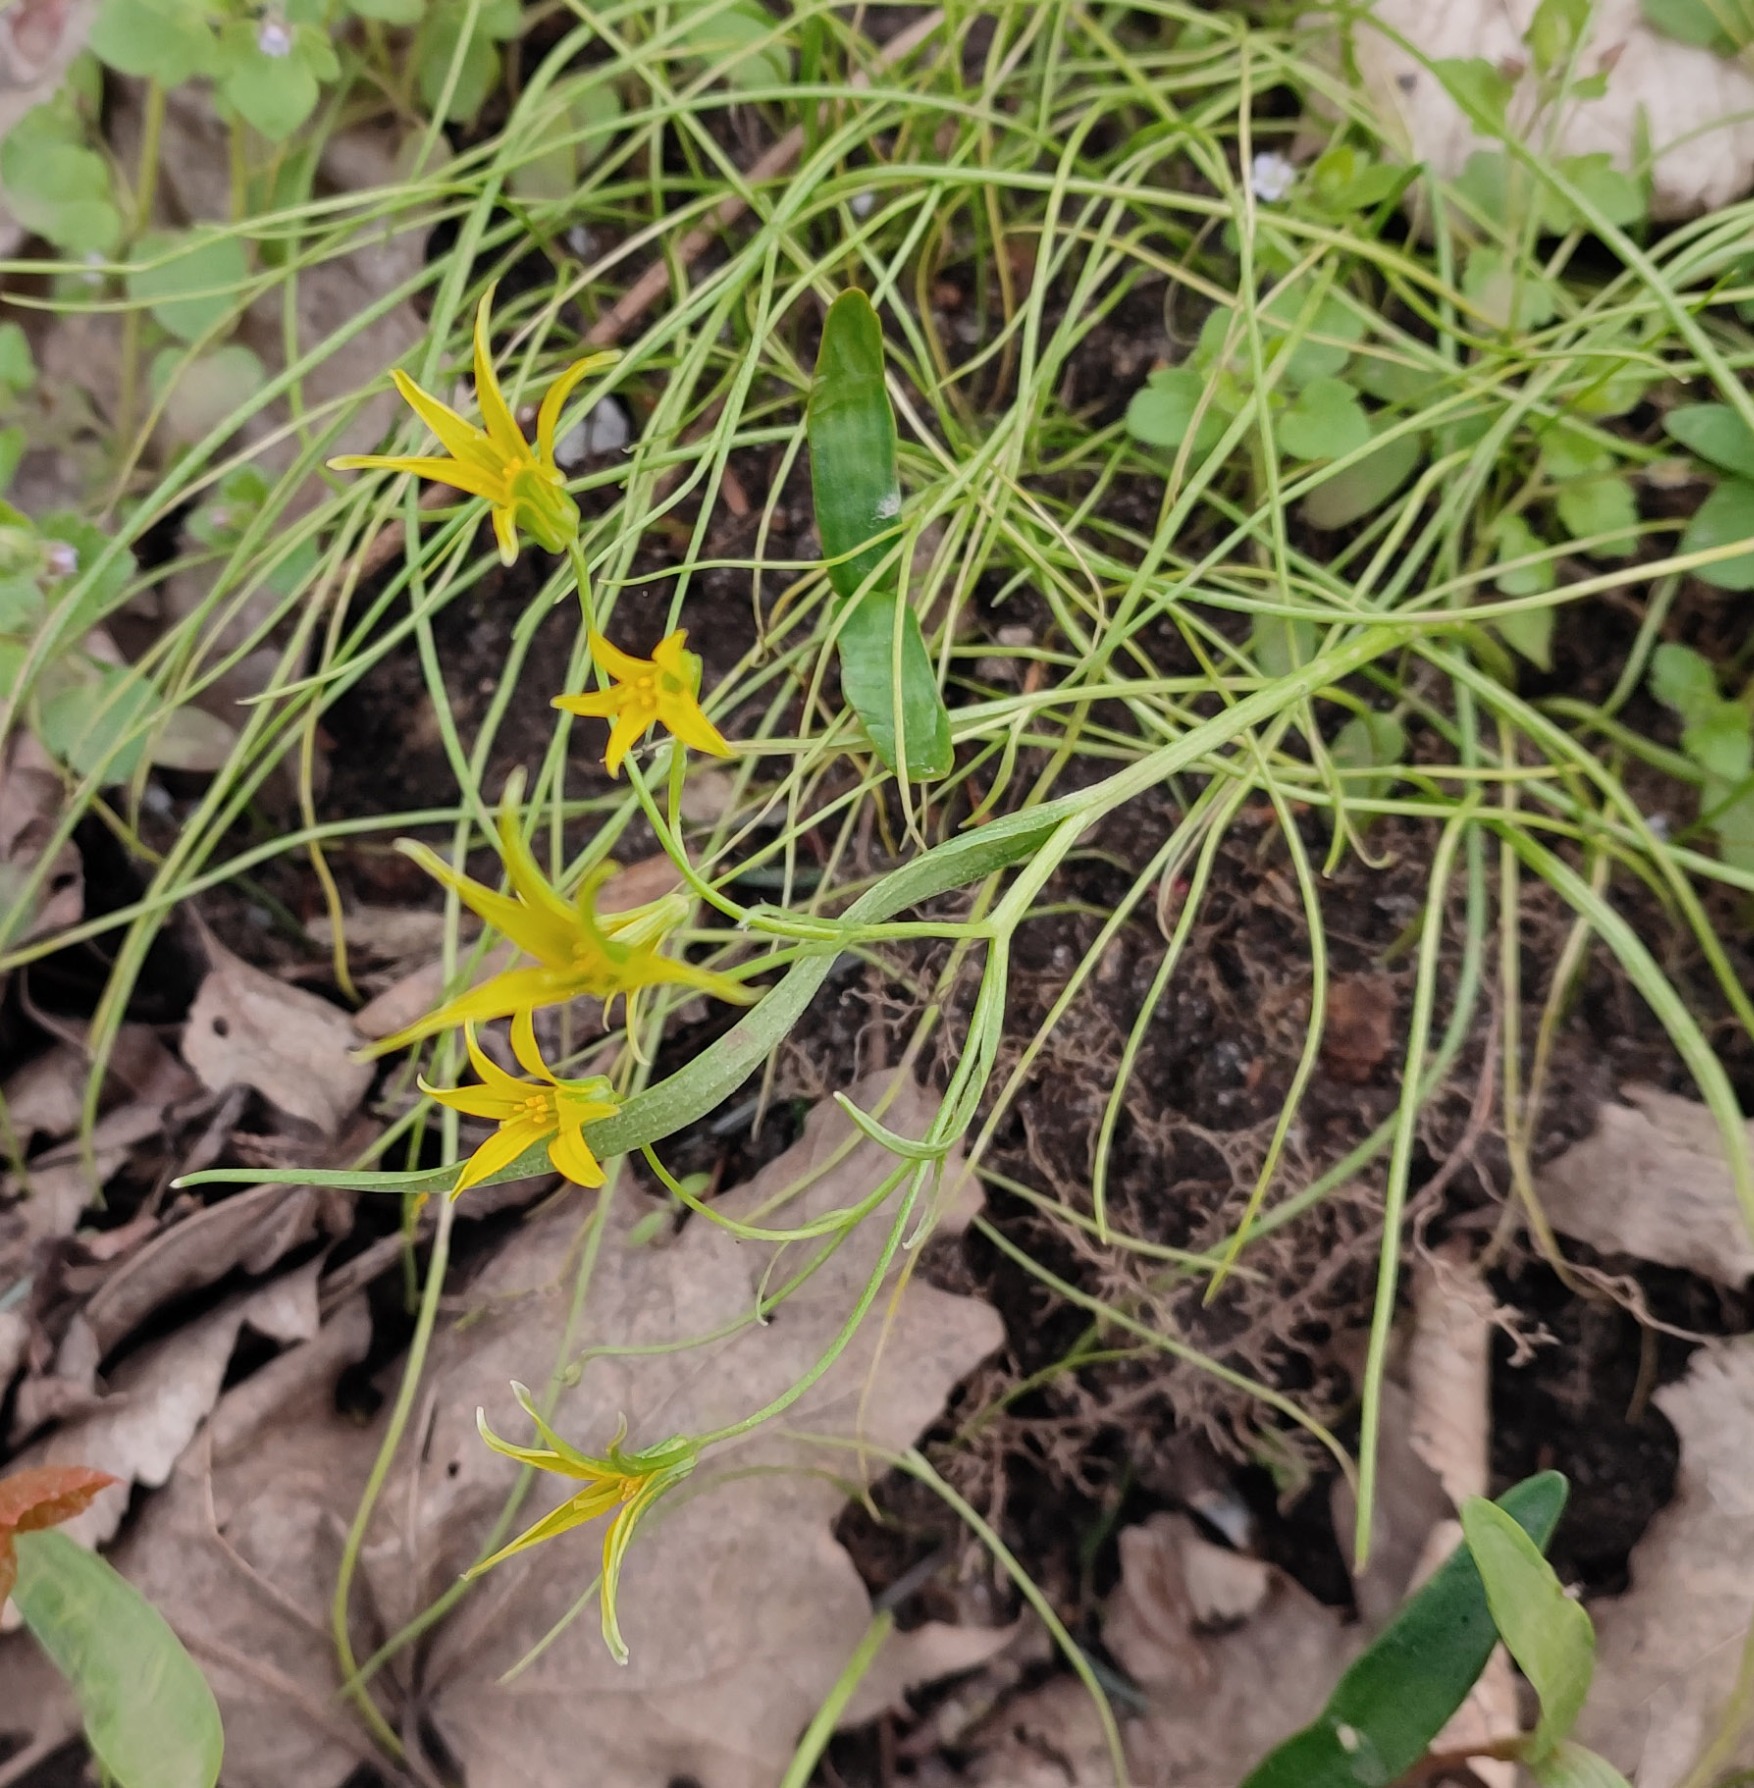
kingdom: Plantae
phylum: Tracheophyta
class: Liliopsida
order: Liliales
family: Liliaceae
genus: Gagea
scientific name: Gagea minima
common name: Liden guldstjerne
